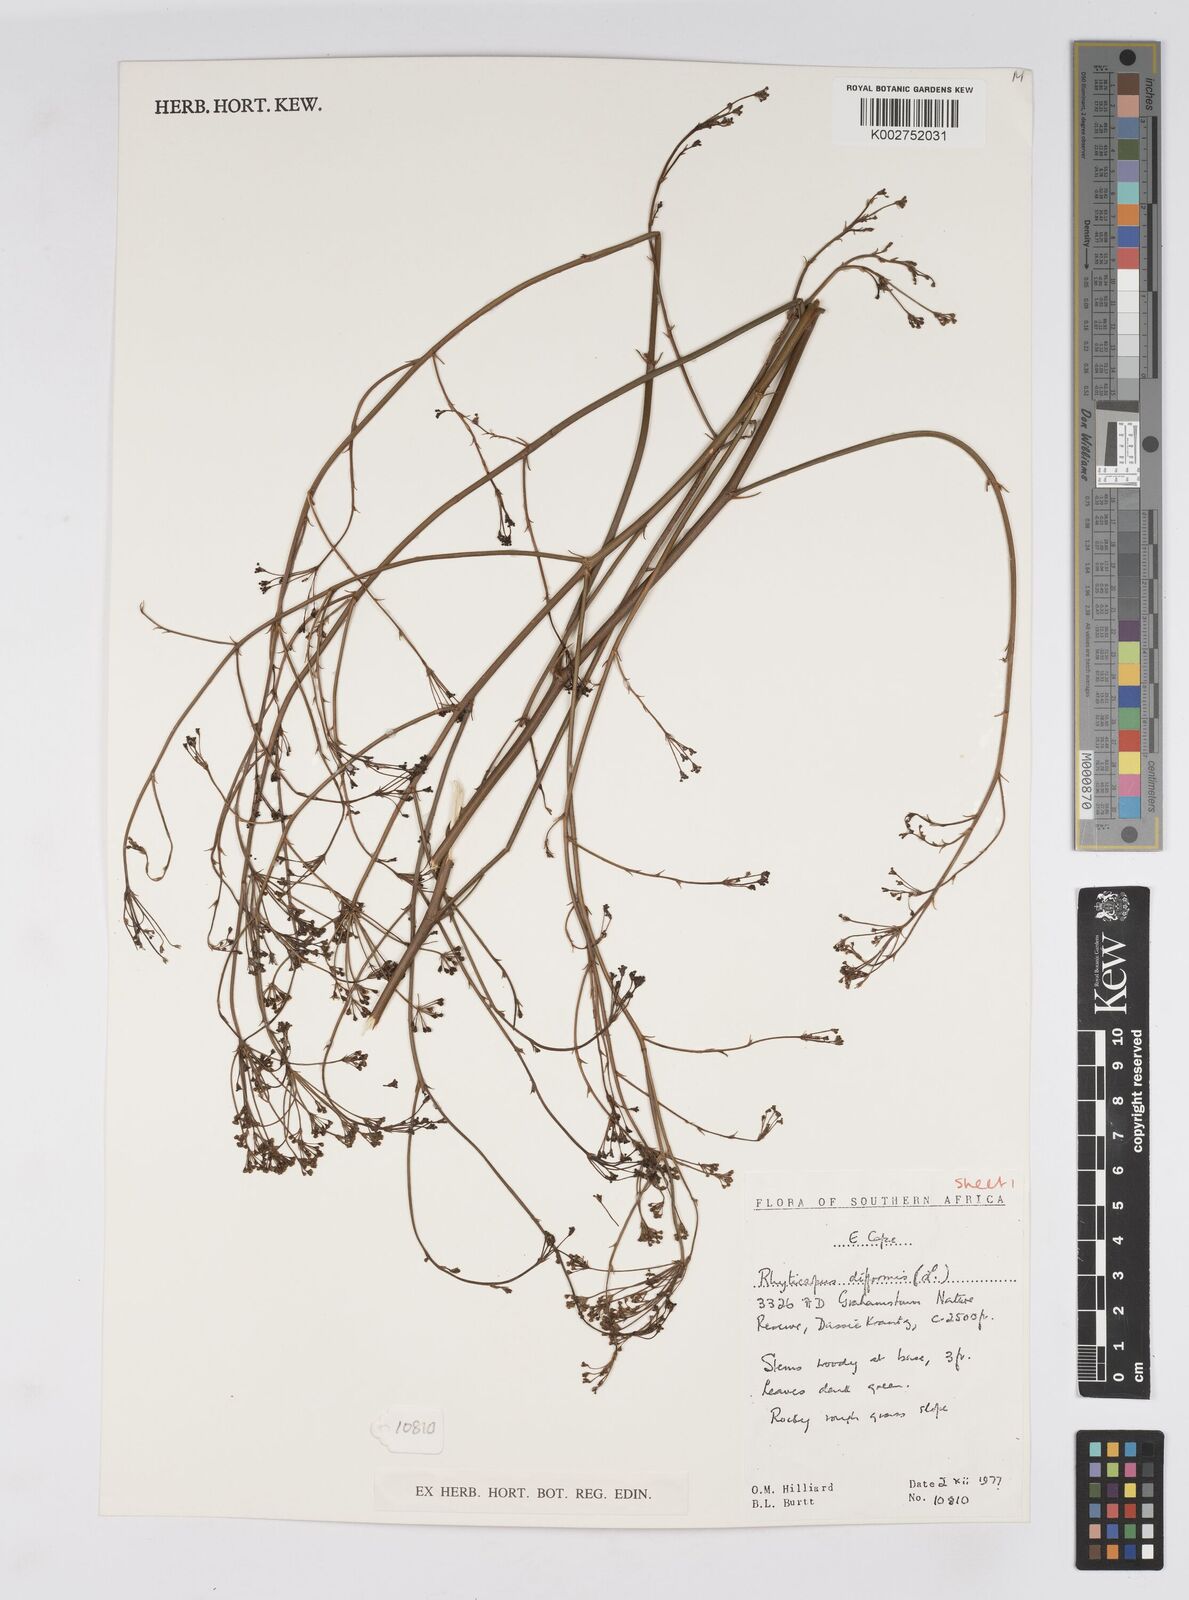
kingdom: Plantae
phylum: Tracheophyta
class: Magnoliopsida
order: Apiales
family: Apiaceae
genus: Anginon
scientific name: Anginon difforme
